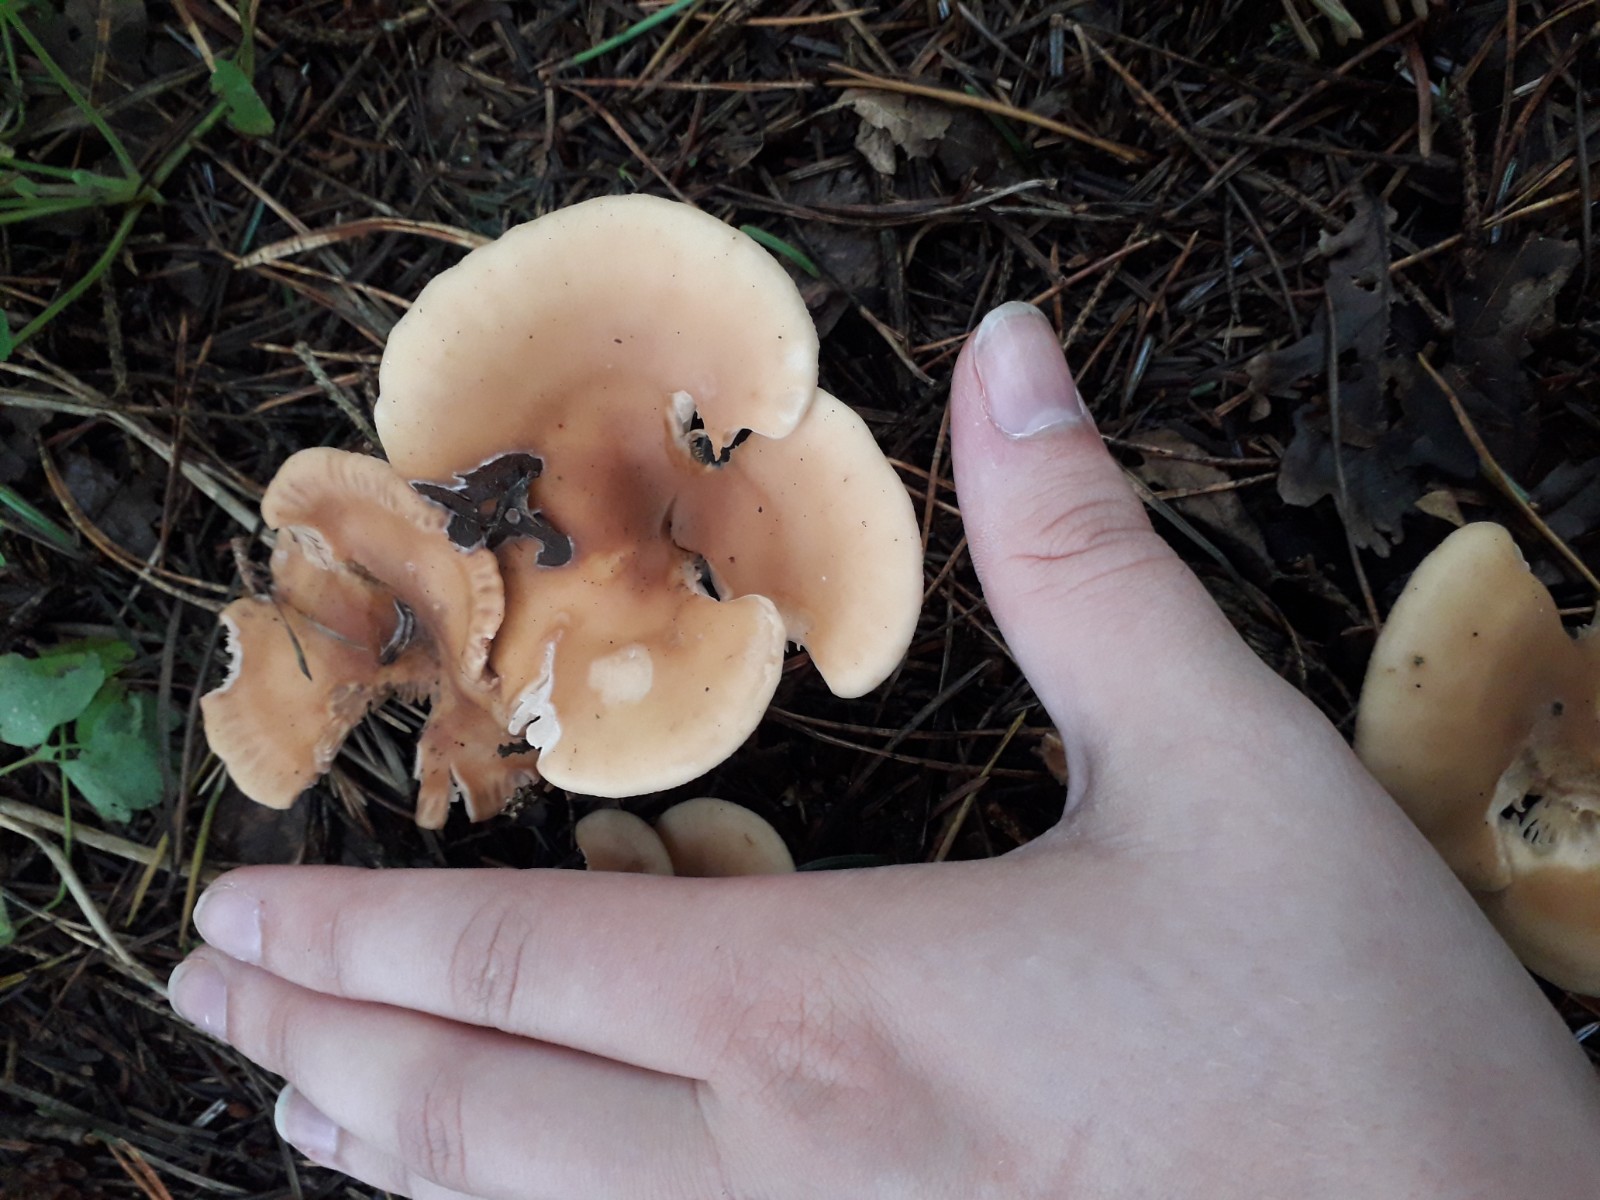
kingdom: Fungi
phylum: Basidiomycota
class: Agaricomycetes
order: Agaricales
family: Tricholomataceae
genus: Paralepista
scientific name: Paralepista flaccida
